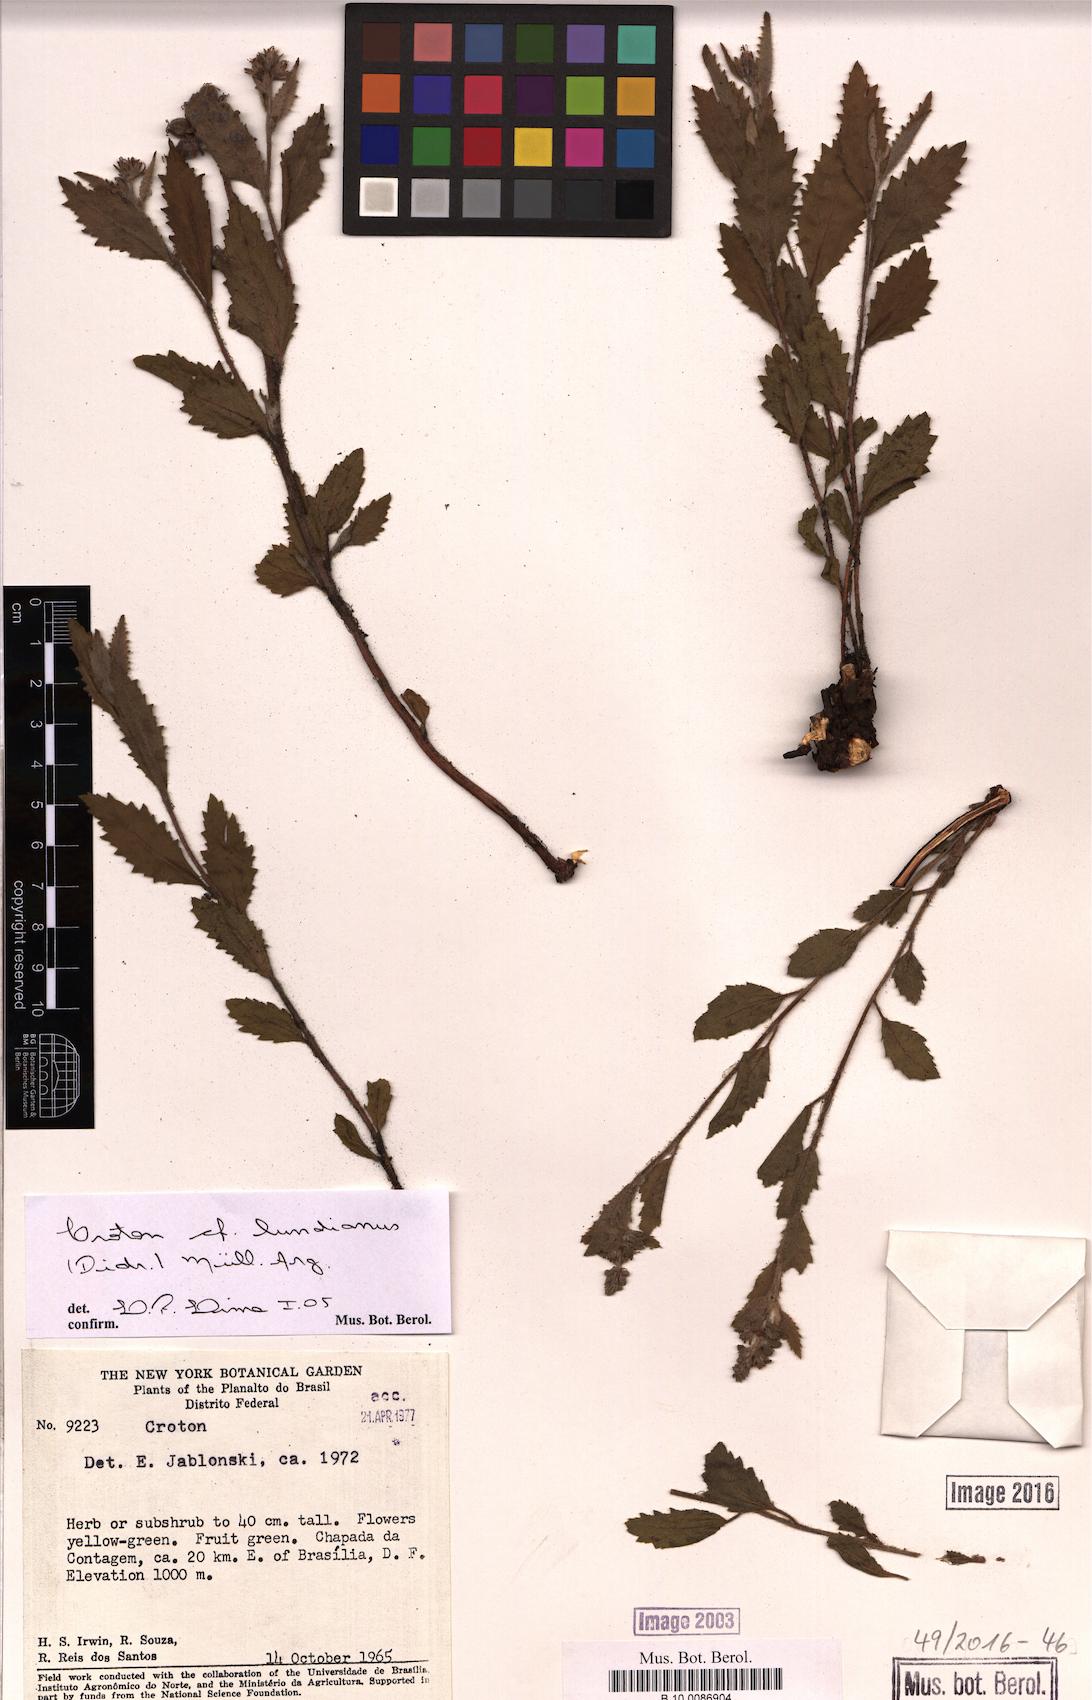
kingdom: Plantae
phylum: Tracheophyta
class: Magnoliopsida
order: Malpighiales
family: Euphorbiaceae
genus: Croton
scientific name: Croton lundianus
